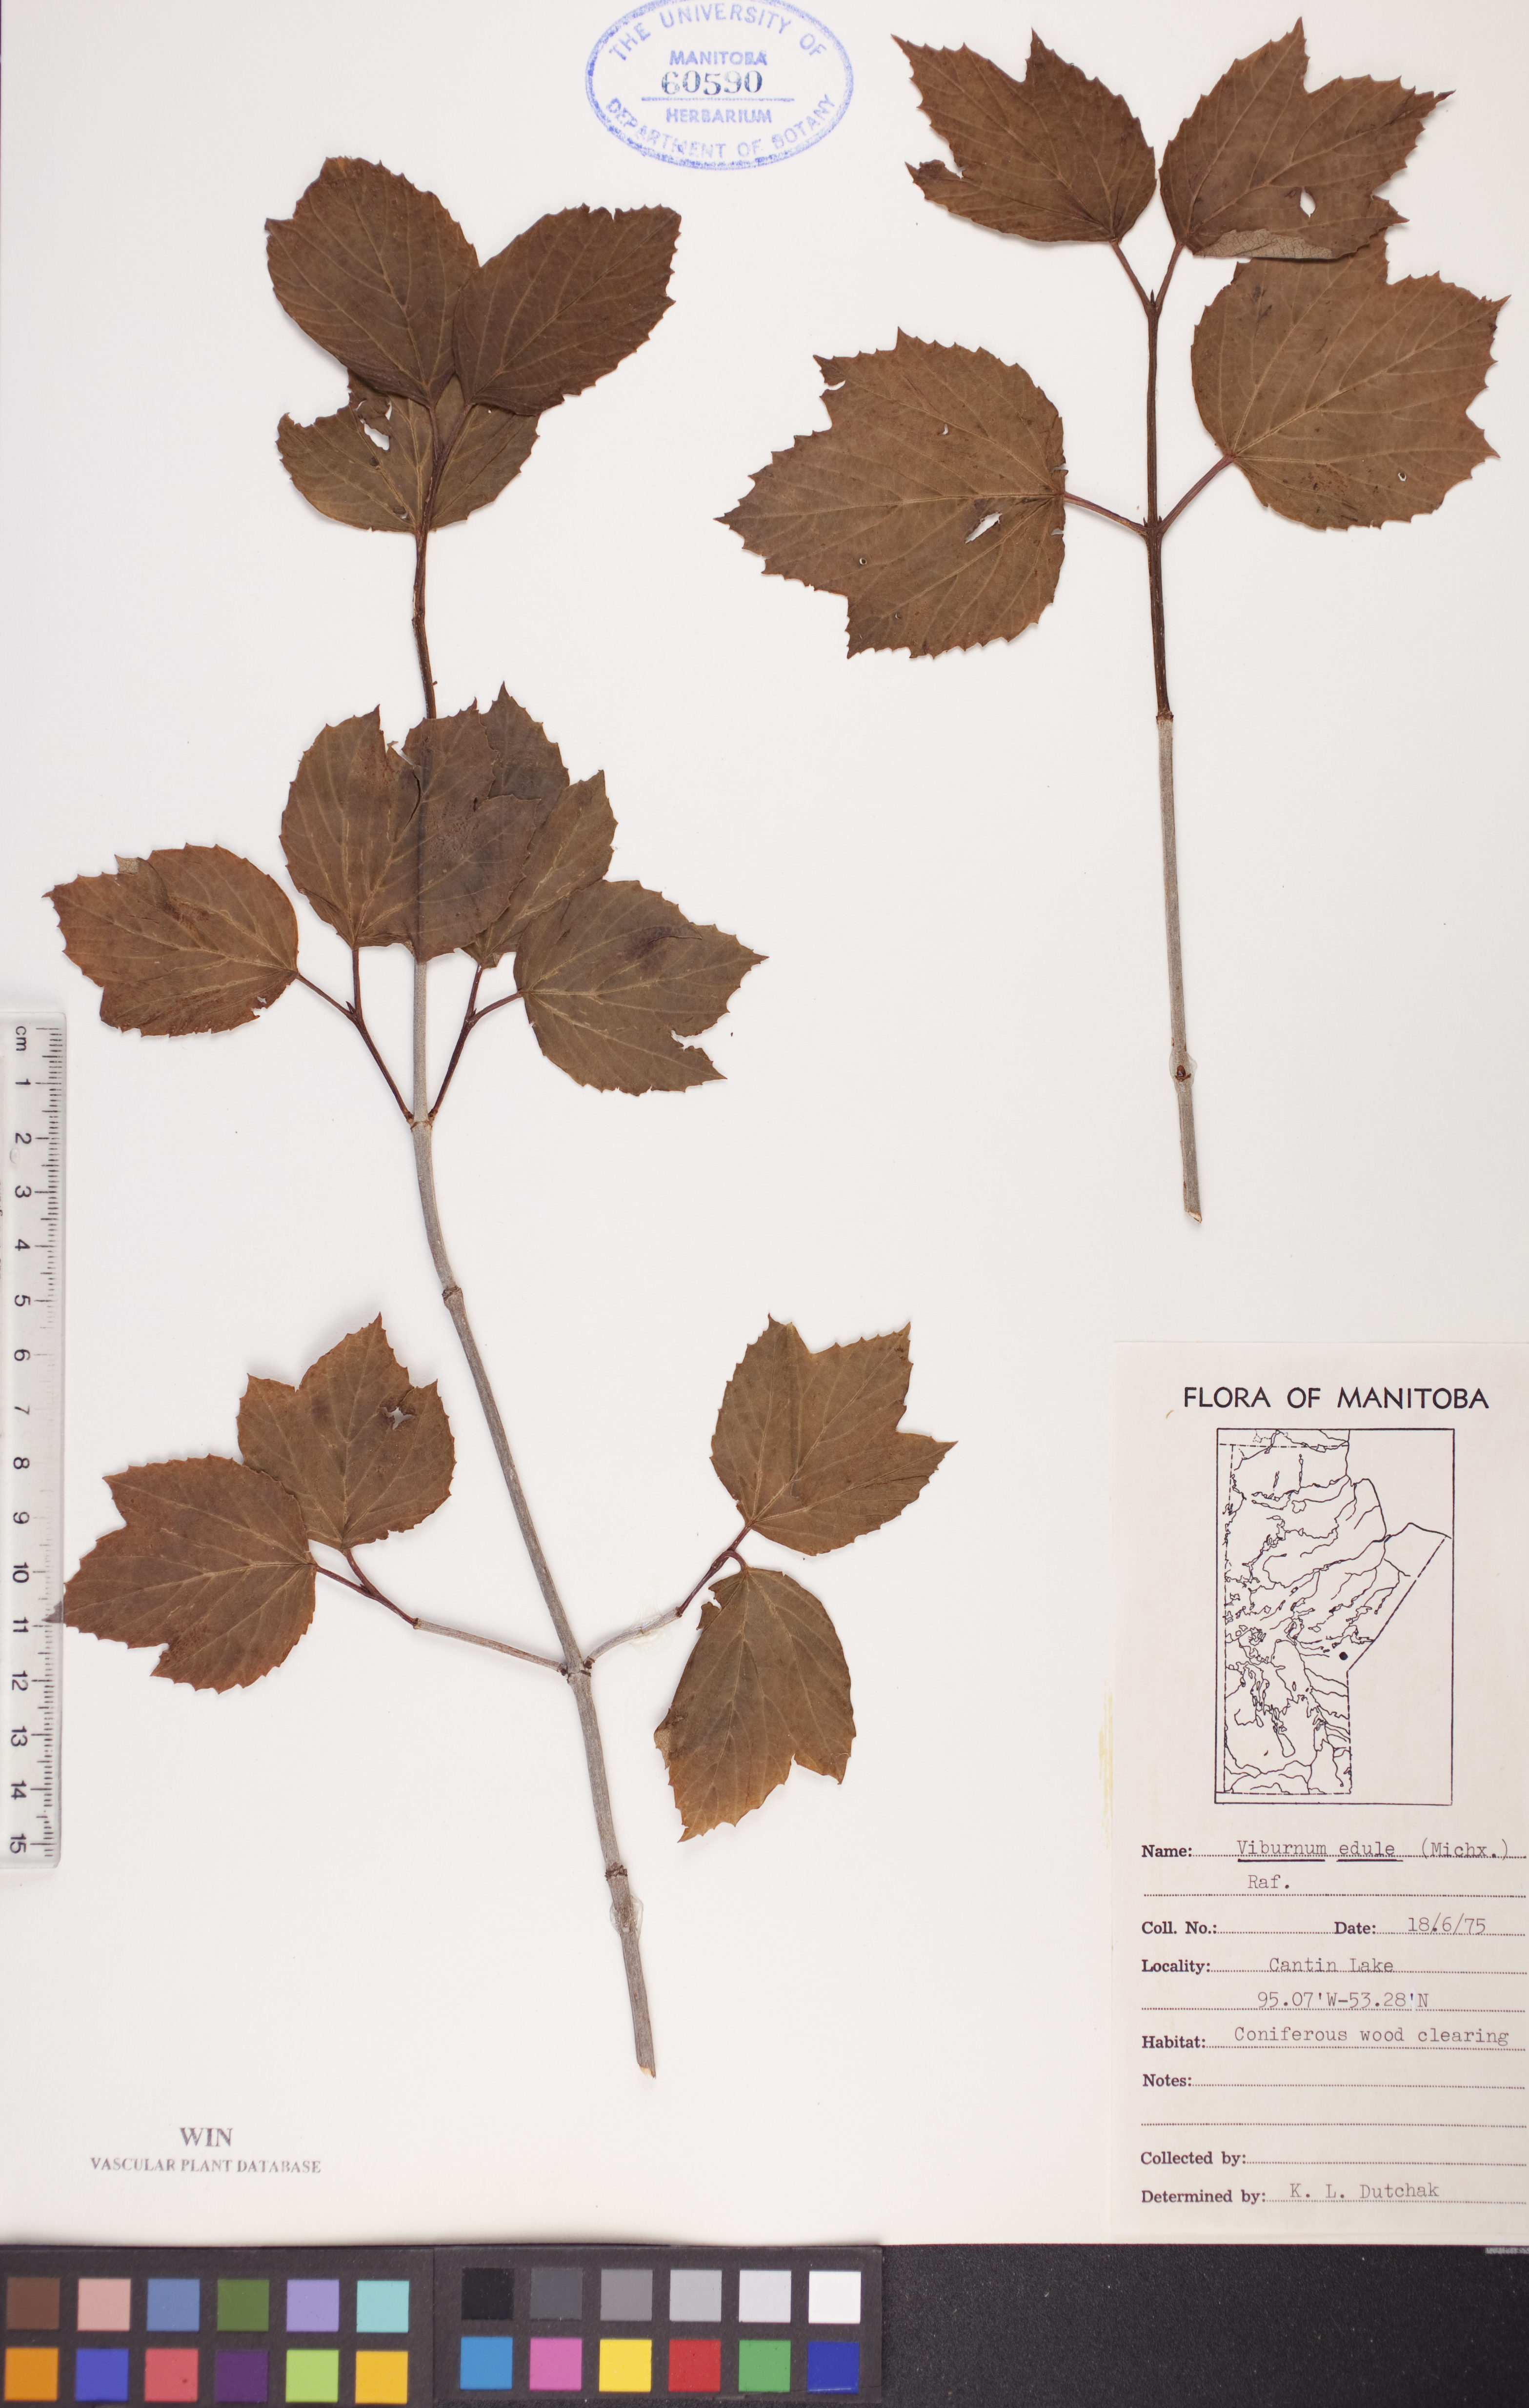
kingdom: Plantae
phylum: Tracheophyta
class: Magnoliopsida
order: Dipsacales
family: Viburnaceae
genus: Viburnum
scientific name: Viburnum edule
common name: Mooseberry
